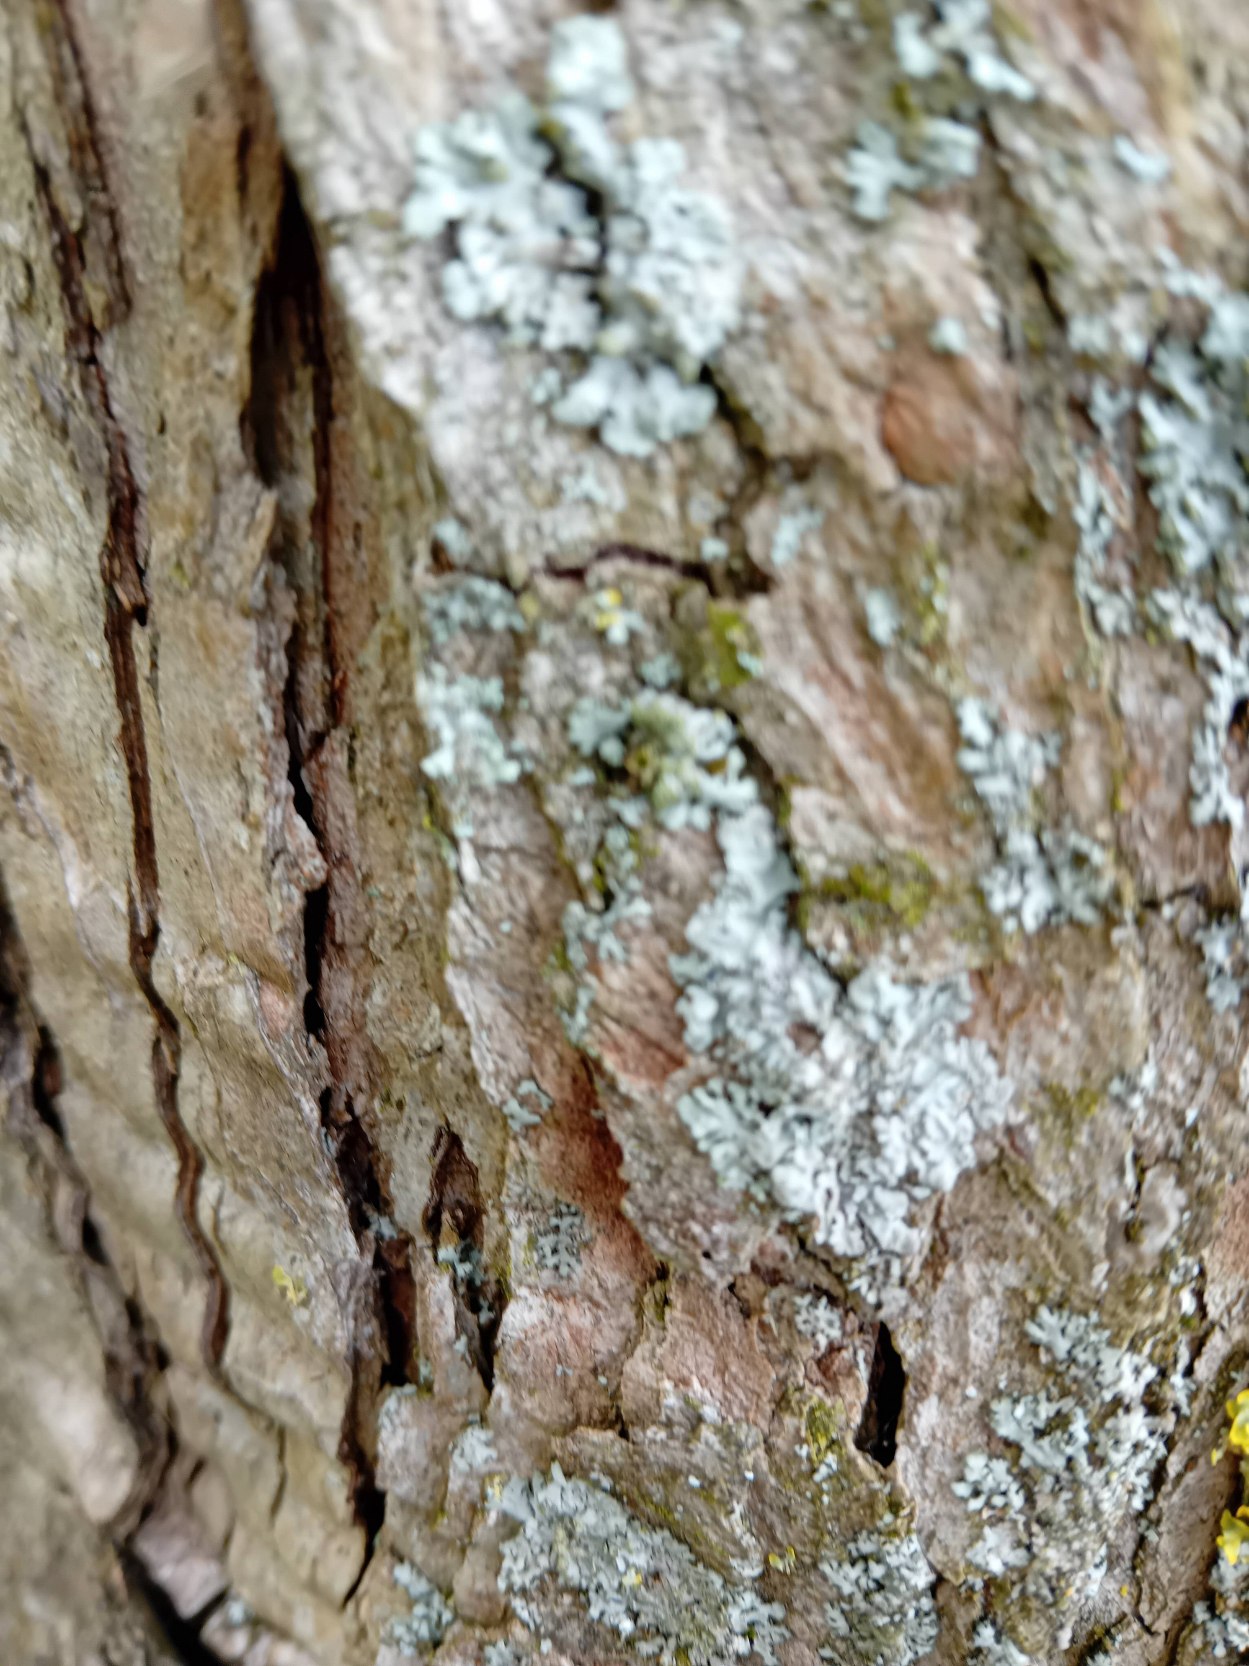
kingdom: Fungi
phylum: Ascomycota
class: Lecanoromycetes
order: Caliciales
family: Physciaceae
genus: Physconia
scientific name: Physconia
